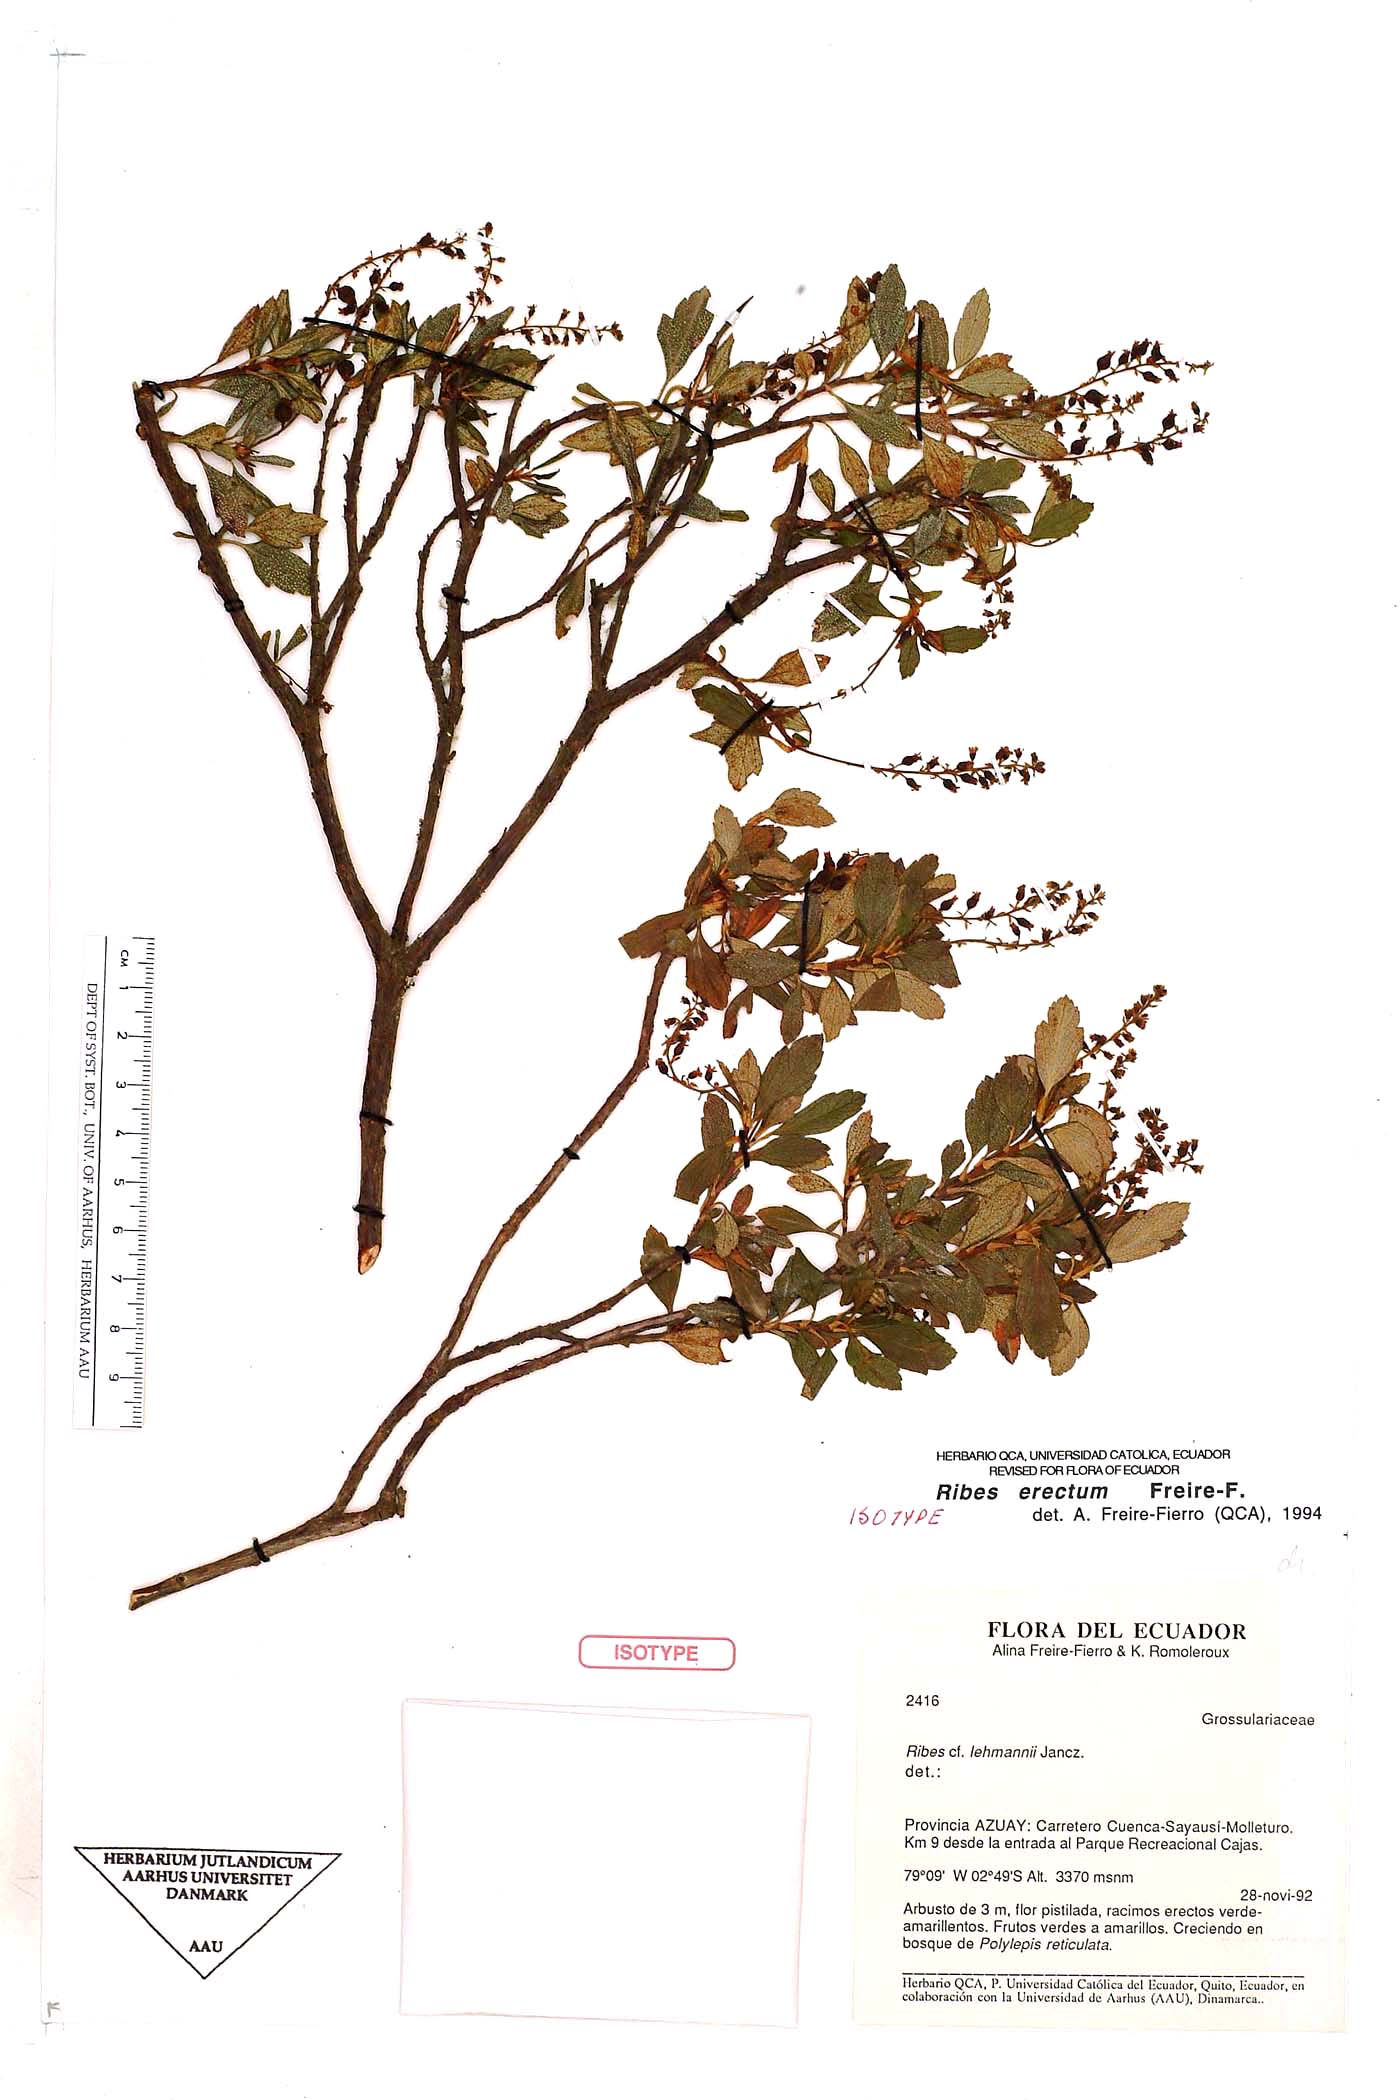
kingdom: Plantae
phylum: Tracheophyta
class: Magnoliopsida
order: Saxifragales
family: Grossulariaceae
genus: Ribes
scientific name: Ribes erectum
